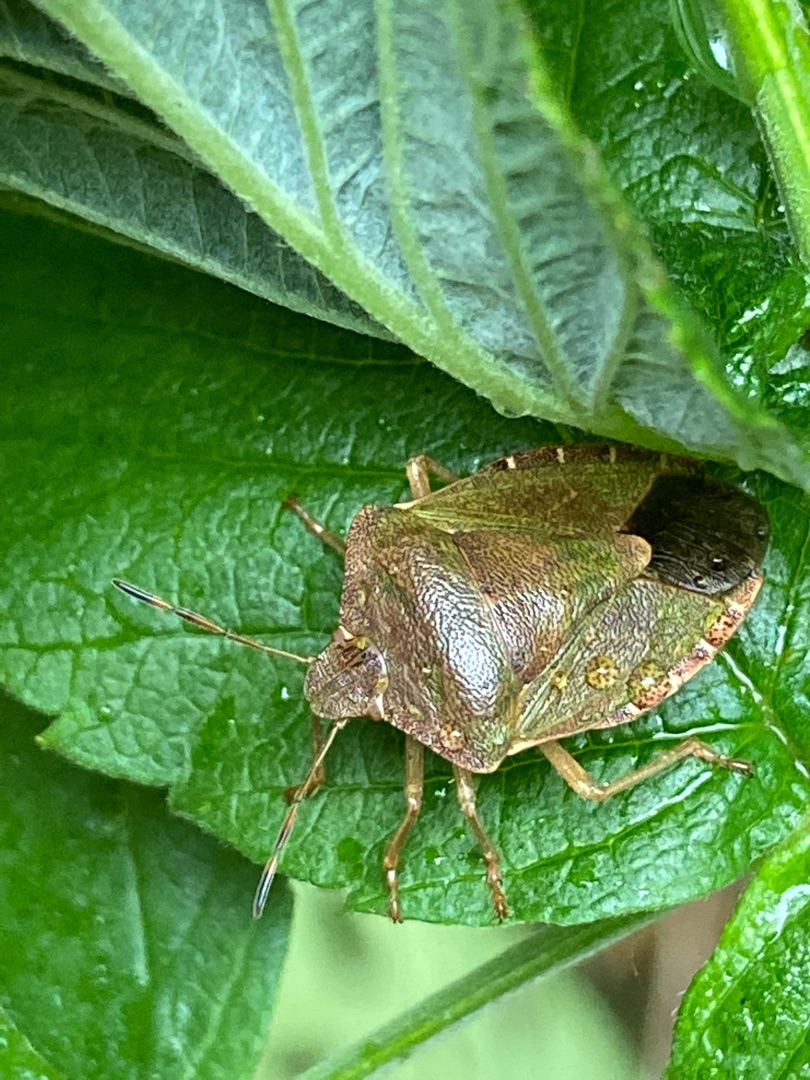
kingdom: Animalia
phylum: Arthropoda
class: Insecta
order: Hemiptera
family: Pentatomidae
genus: Palomena
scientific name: Palomena prasina
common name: Grøn bredtæge
